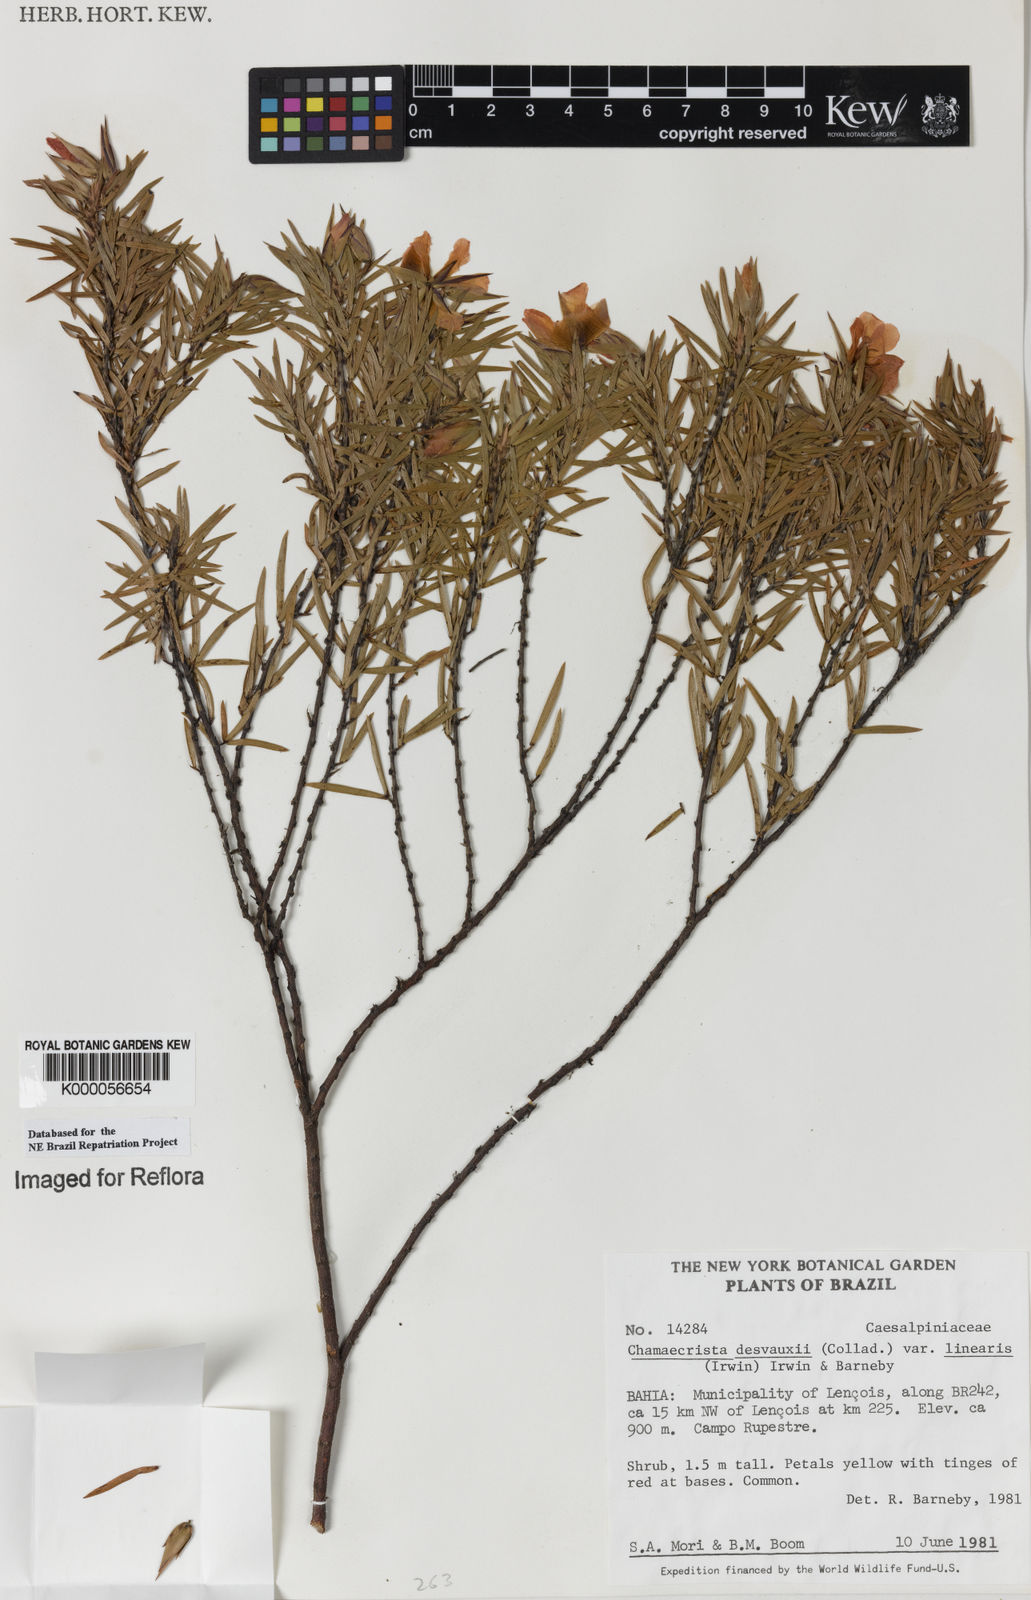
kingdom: Plantae
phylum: Tracheophyta
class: Magnoliopsida
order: Fabales
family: Fabaceae
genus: Chamaecrista
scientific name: Chamaecrista desvauxii
